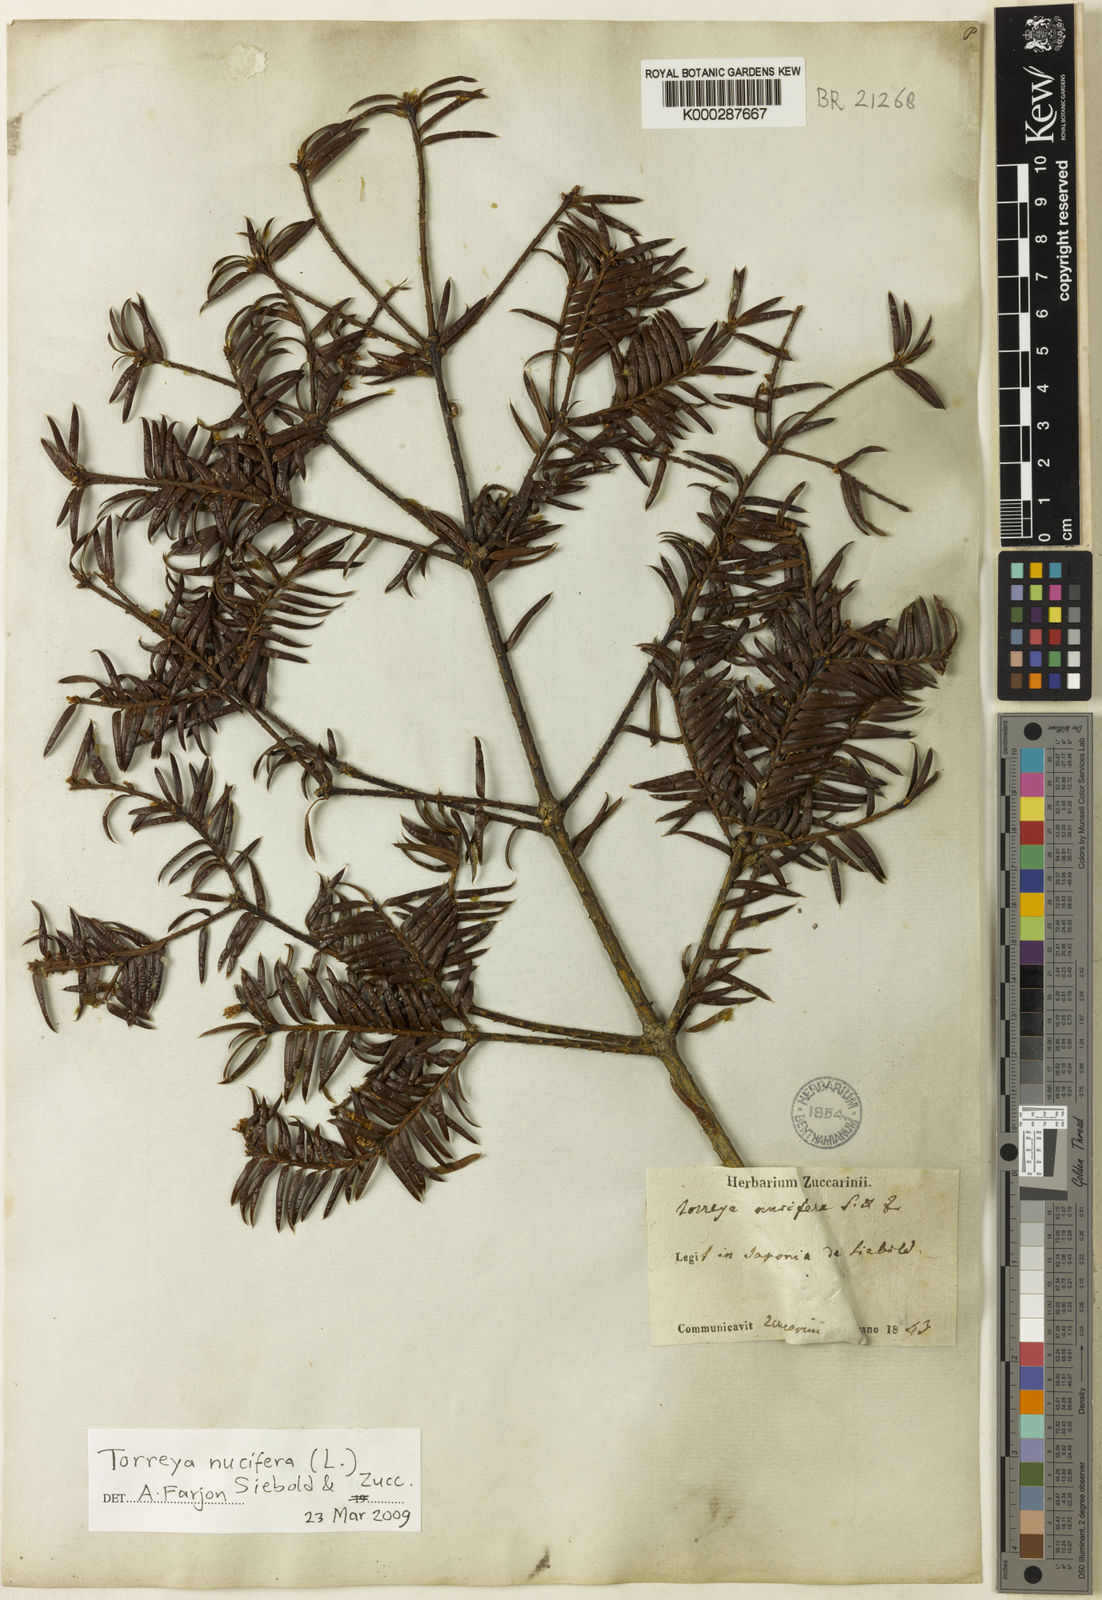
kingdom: Plantae
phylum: Tracheophyta
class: Pinopsida
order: Pinales
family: Taxaceae
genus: Torreya
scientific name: Torreya nucifera
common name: Japanese nutmeg tree
